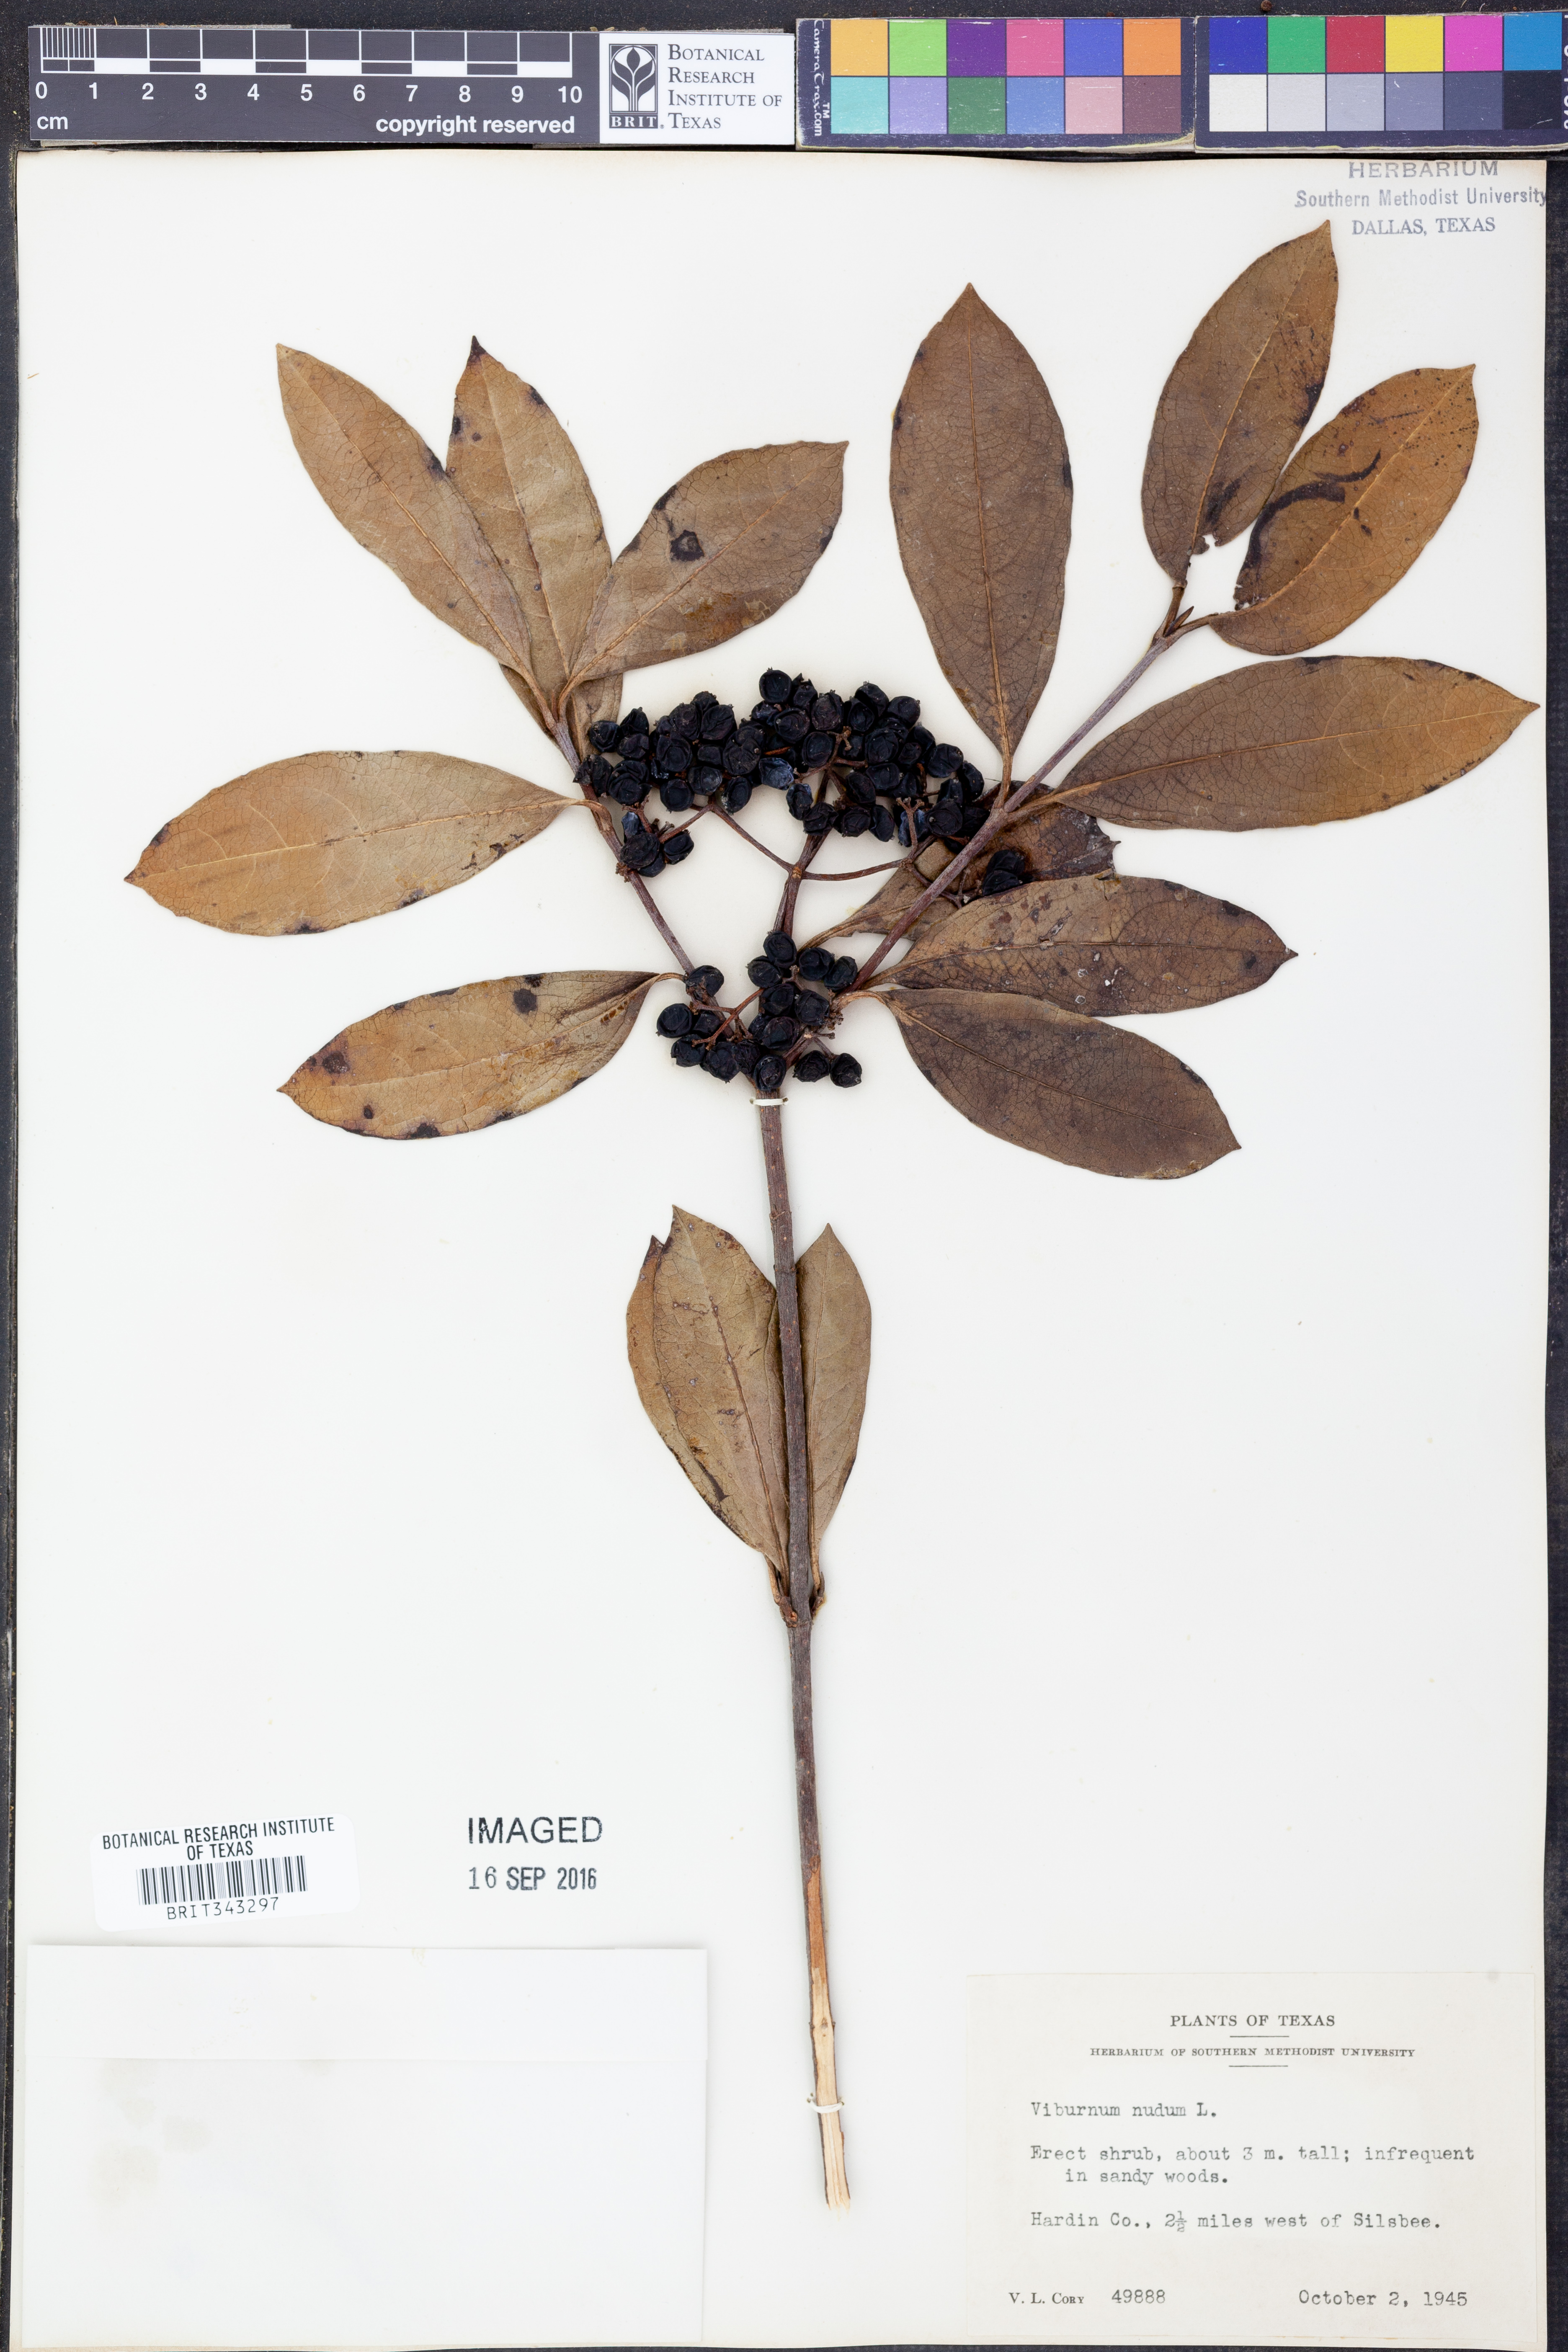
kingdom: Plantae
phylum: Tracheophyta
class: Magnoliopsida
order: Dipsacales
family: Viburnaceae
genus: Viburnum
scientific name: Viburnum nudum
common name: Possum haw
